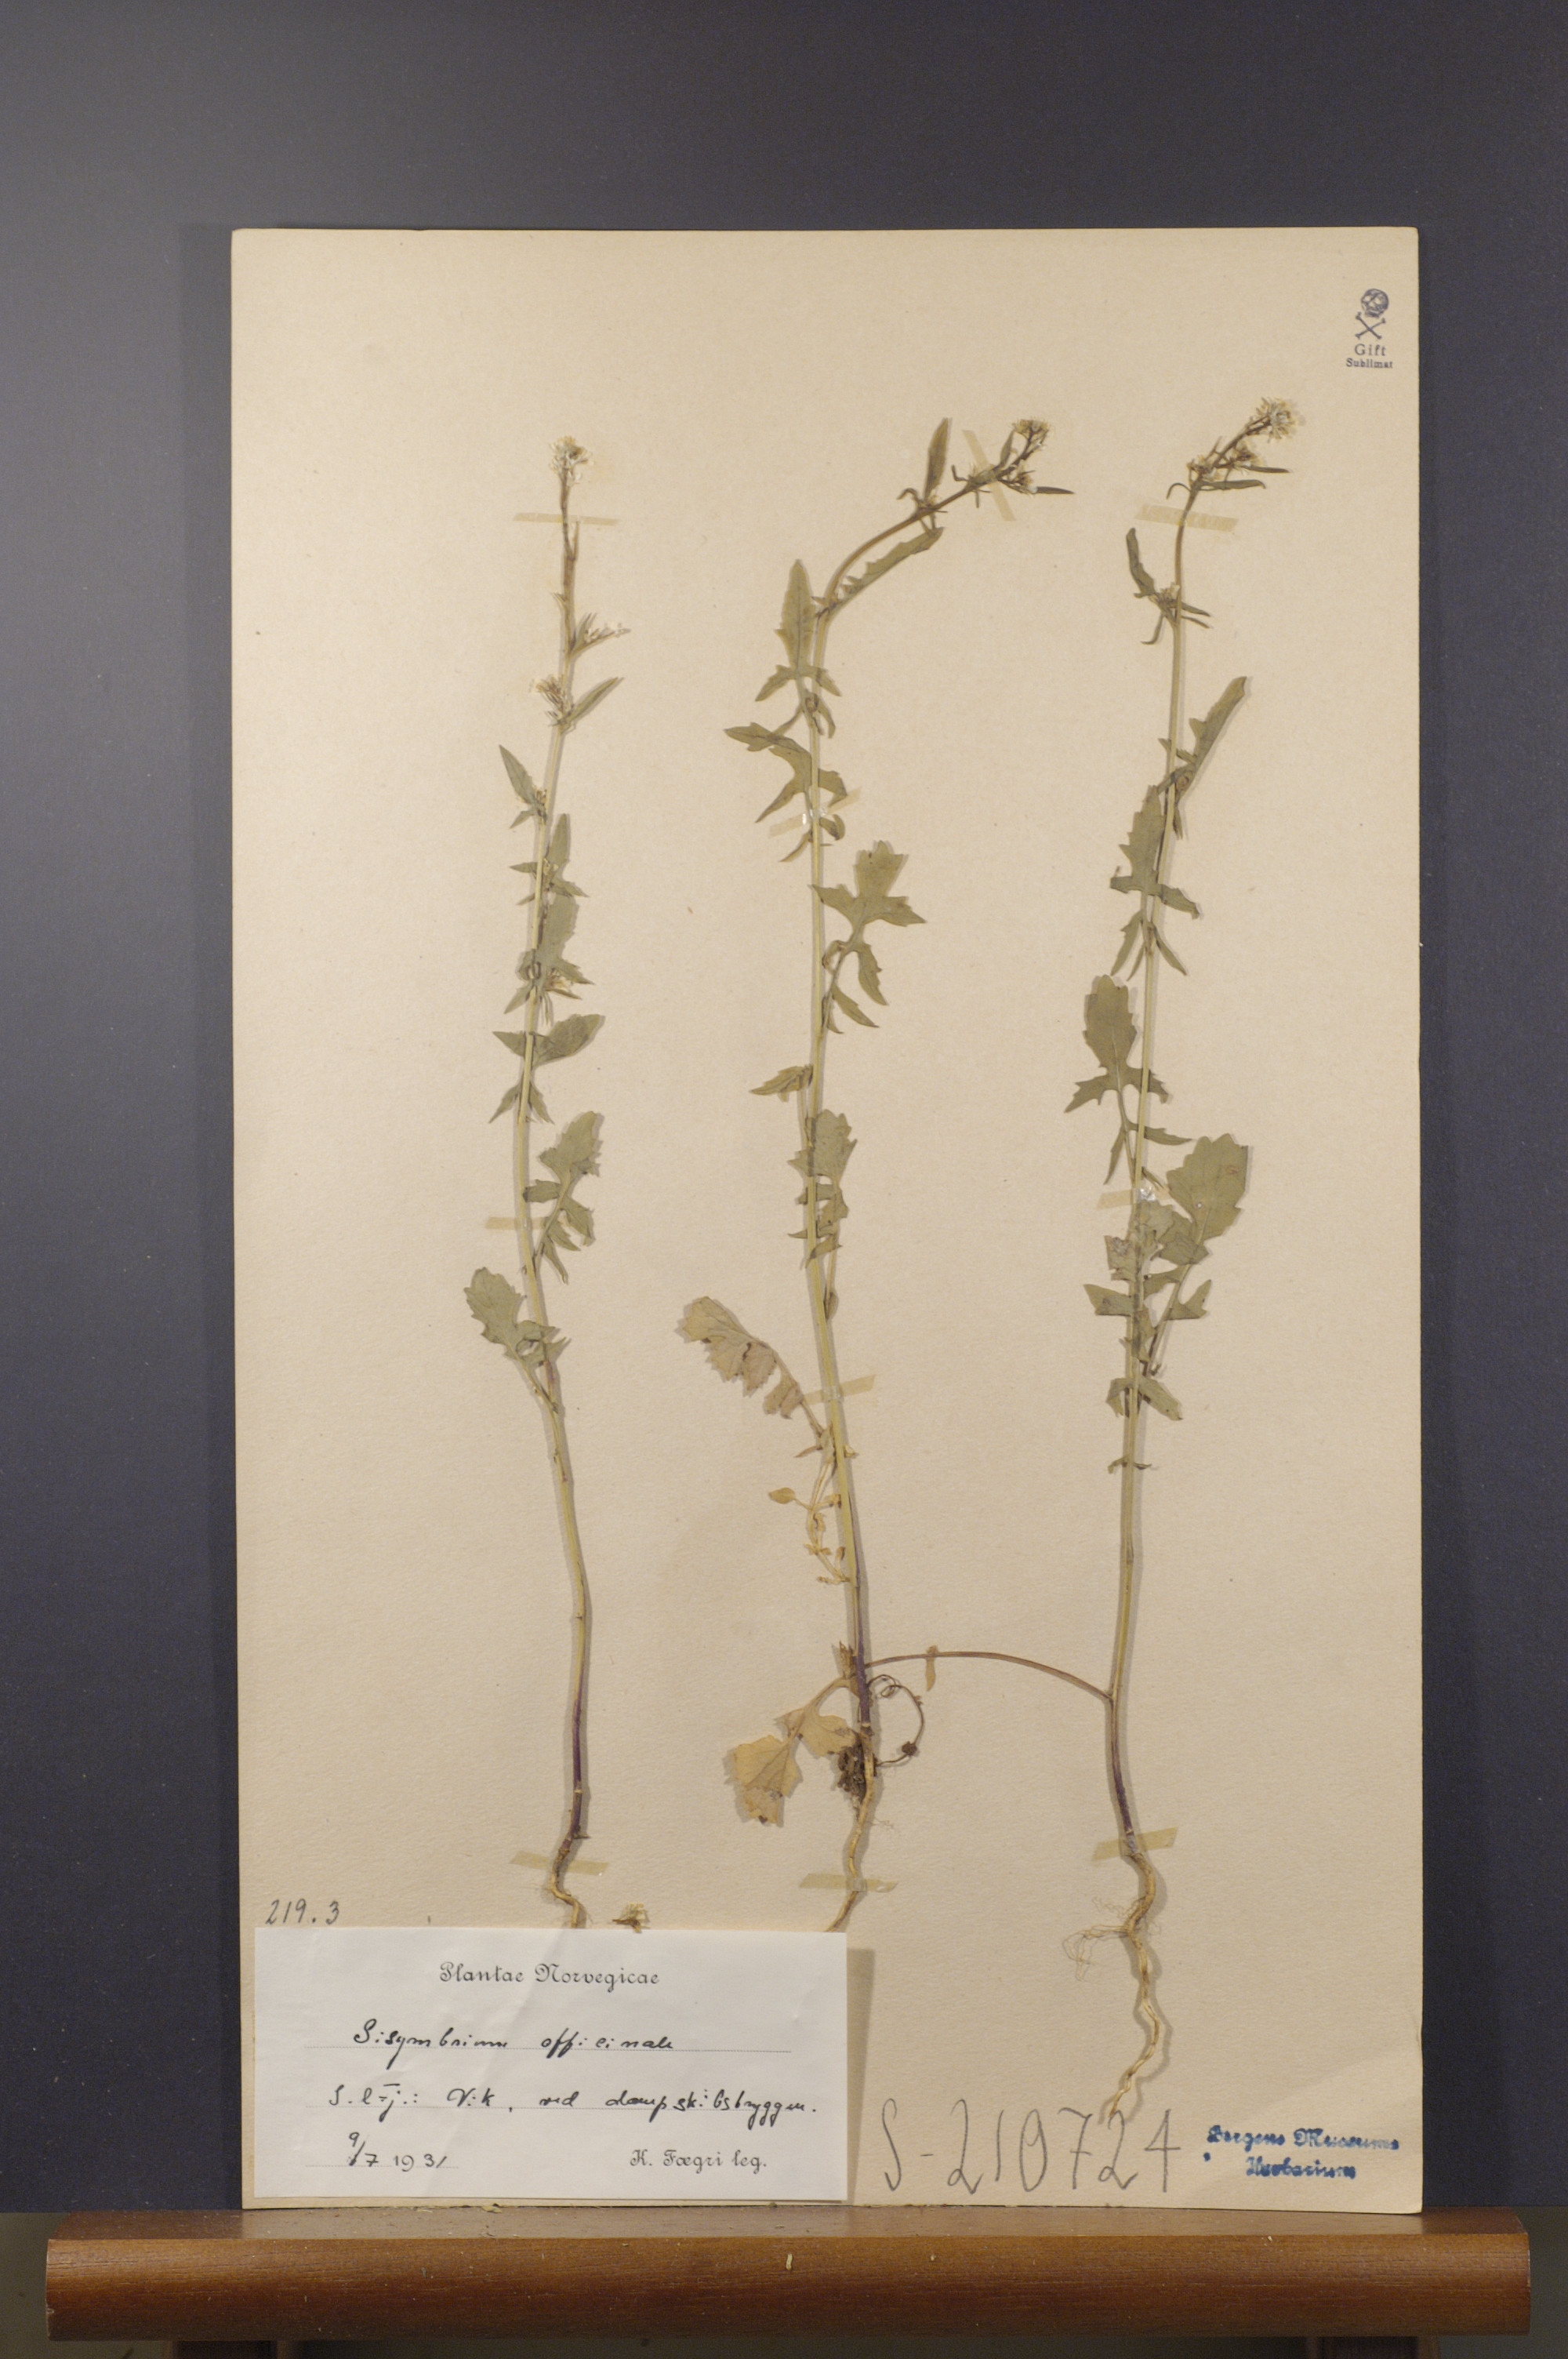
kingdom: Plantae
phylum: Tracheophyta
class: Magnoliopsida
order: Brassicales
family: Brassicaceae
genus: Sisymbrium
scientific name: Sisymbrium officinale
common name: Hedge mustard
